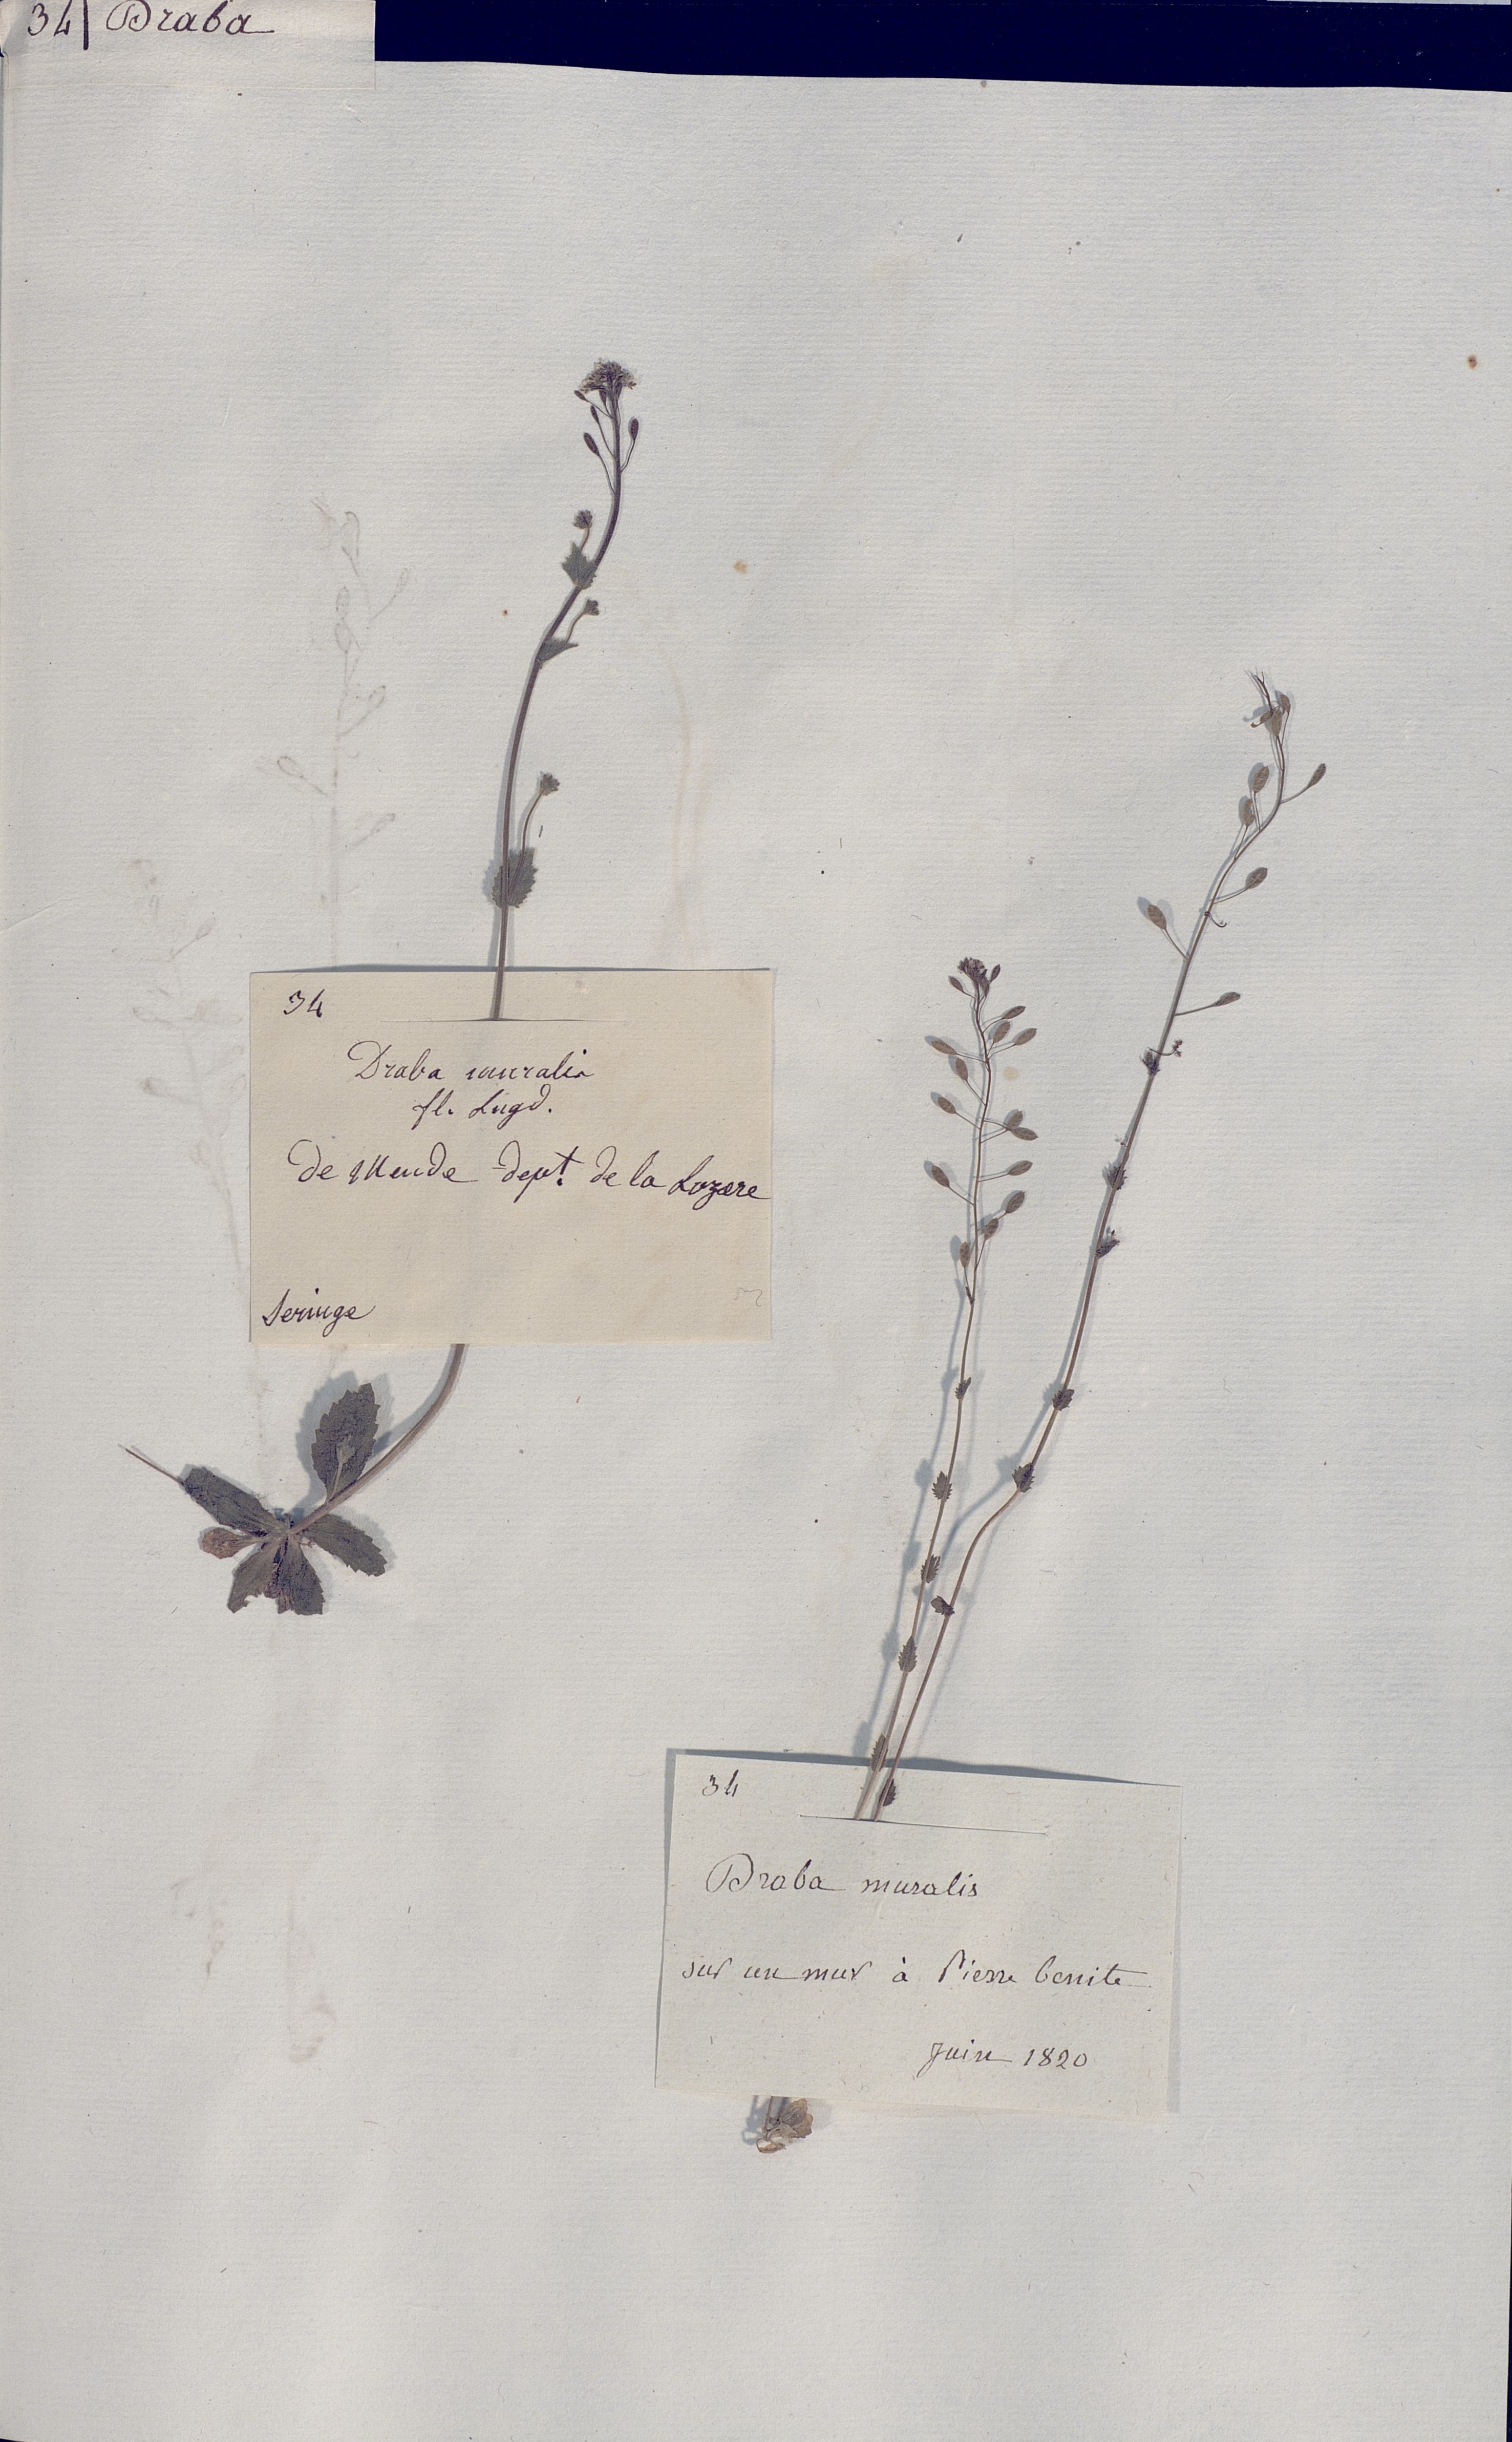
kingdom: Plantae
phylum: Tracheophyta
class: Magnoliopsida
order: Brassicales
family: Brassicaceae
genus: Draba
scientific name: Draba nemorosa
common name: Wood whitlow-grass
